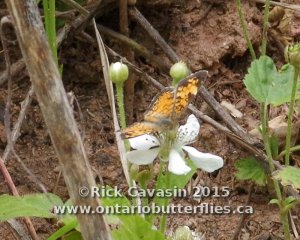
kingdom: Animalia
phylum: Arthropoda
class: Insecta
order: Lepidoptera
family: Nymphalidae
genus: Phyciodes
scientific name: Phyciodes tharos
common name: Pearl Crescent
